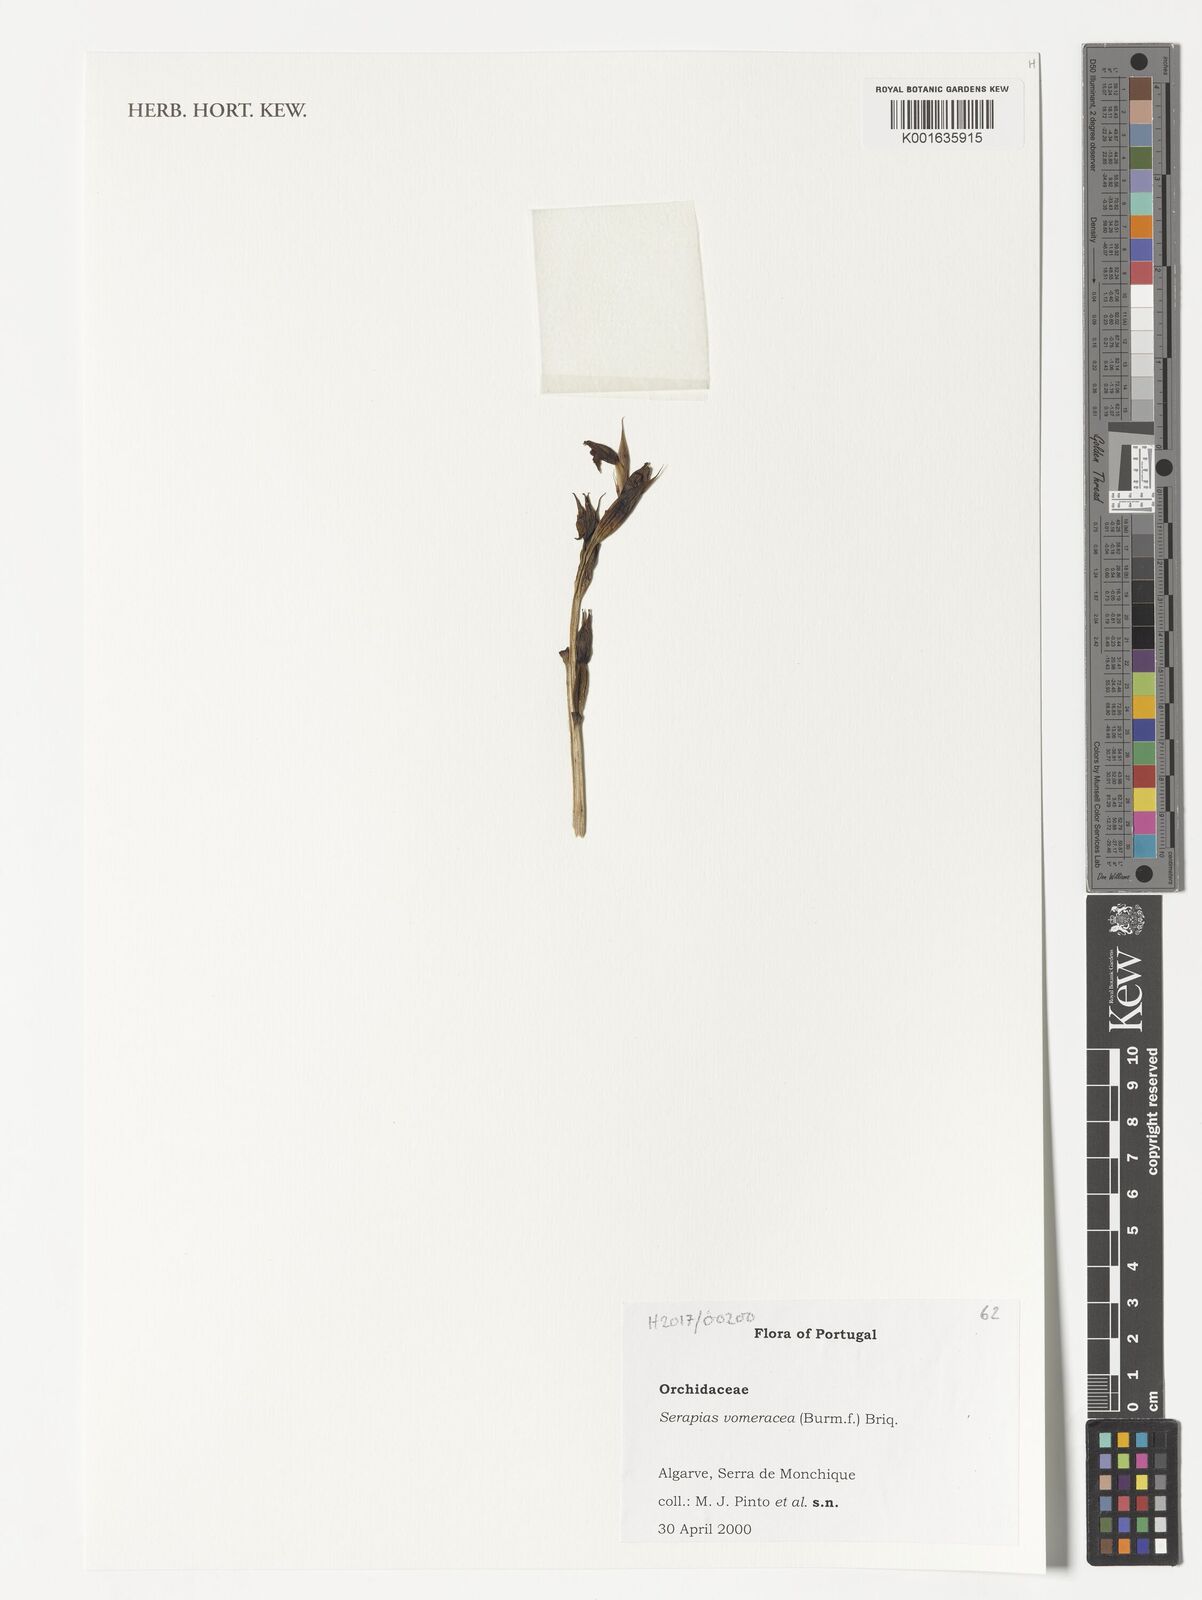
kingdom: Plantae
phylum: Tracheophyta
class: Liliopsida
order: Asparagales
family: Orchidaceae
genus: Serapias
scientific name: Serapias vomeracea
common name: Long-lipped tongue-orchid
